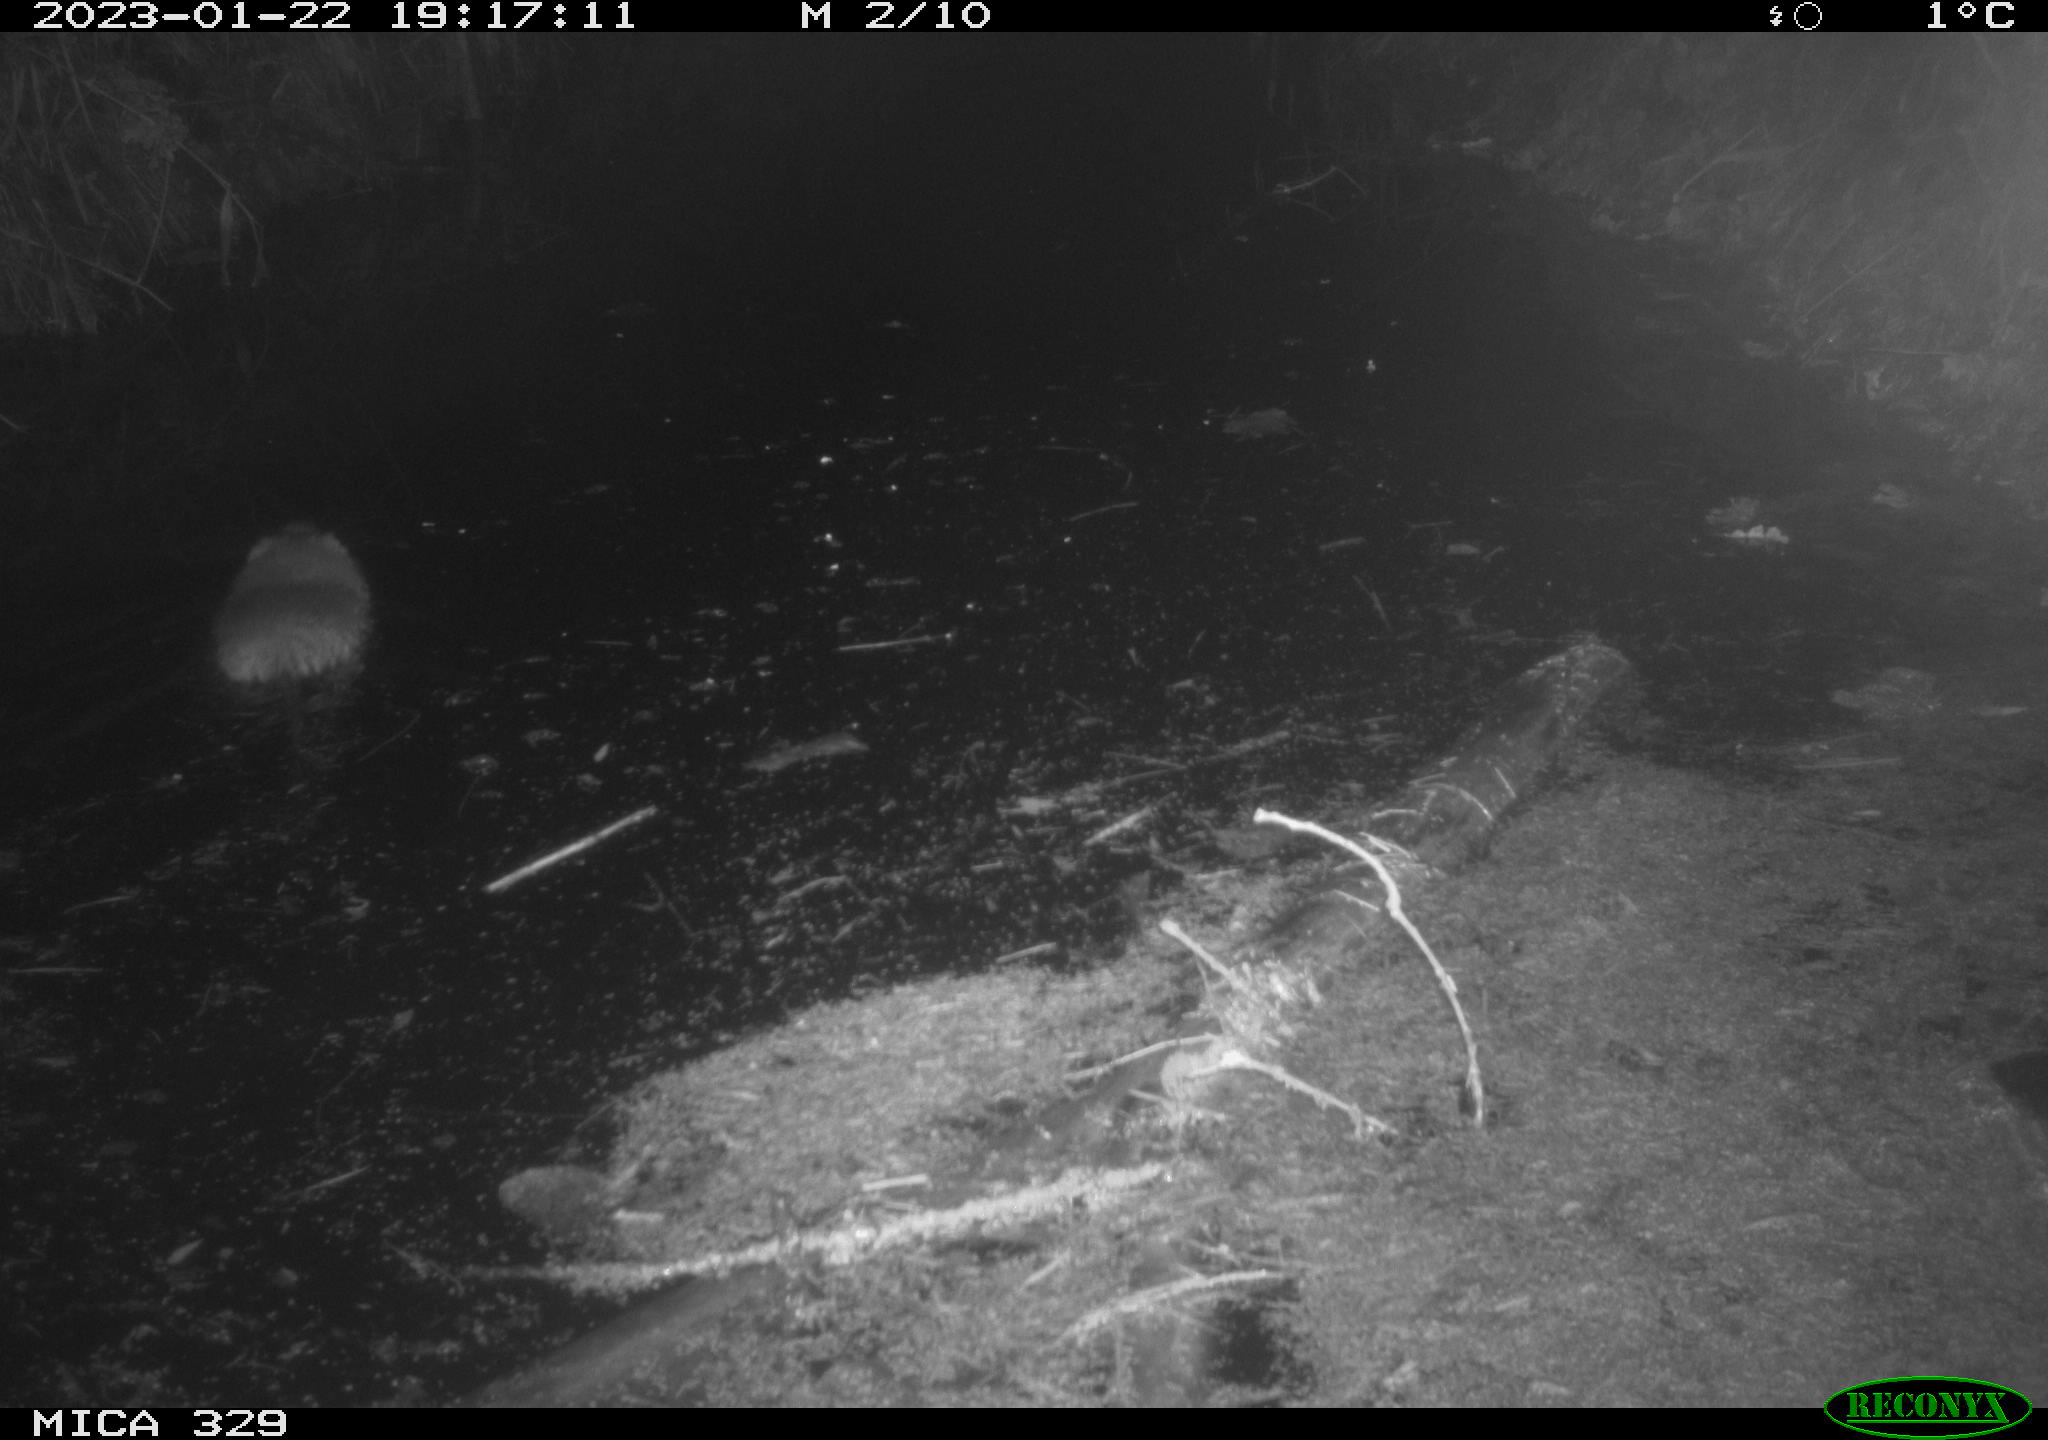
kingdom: Animalia
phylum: Chordata
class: Mammalia
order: Rodentia
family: Cricetidae
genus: Ondatra
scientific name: Ondatra zibethicus
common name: Muskrat
